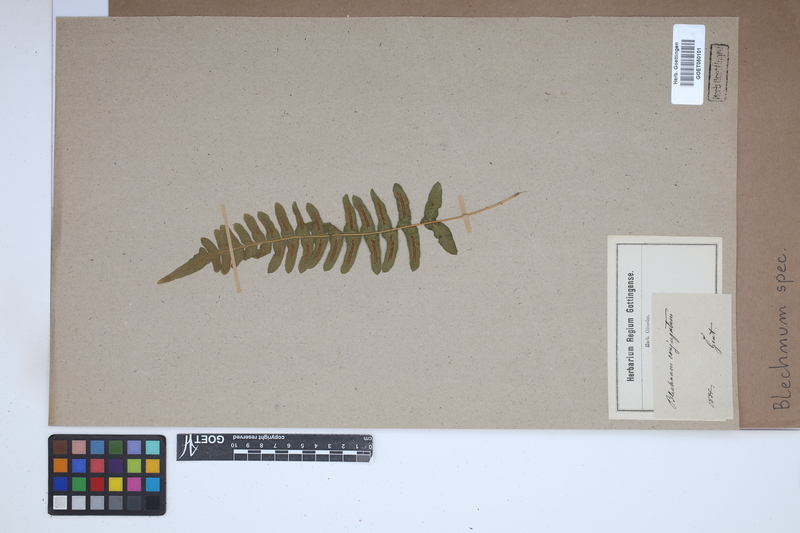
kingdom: Plantae
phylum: Tracheophyta
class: Polypodiopsida
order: Polypodiales
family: Blechnaceae
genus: Blechnum
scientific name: Blechnum
